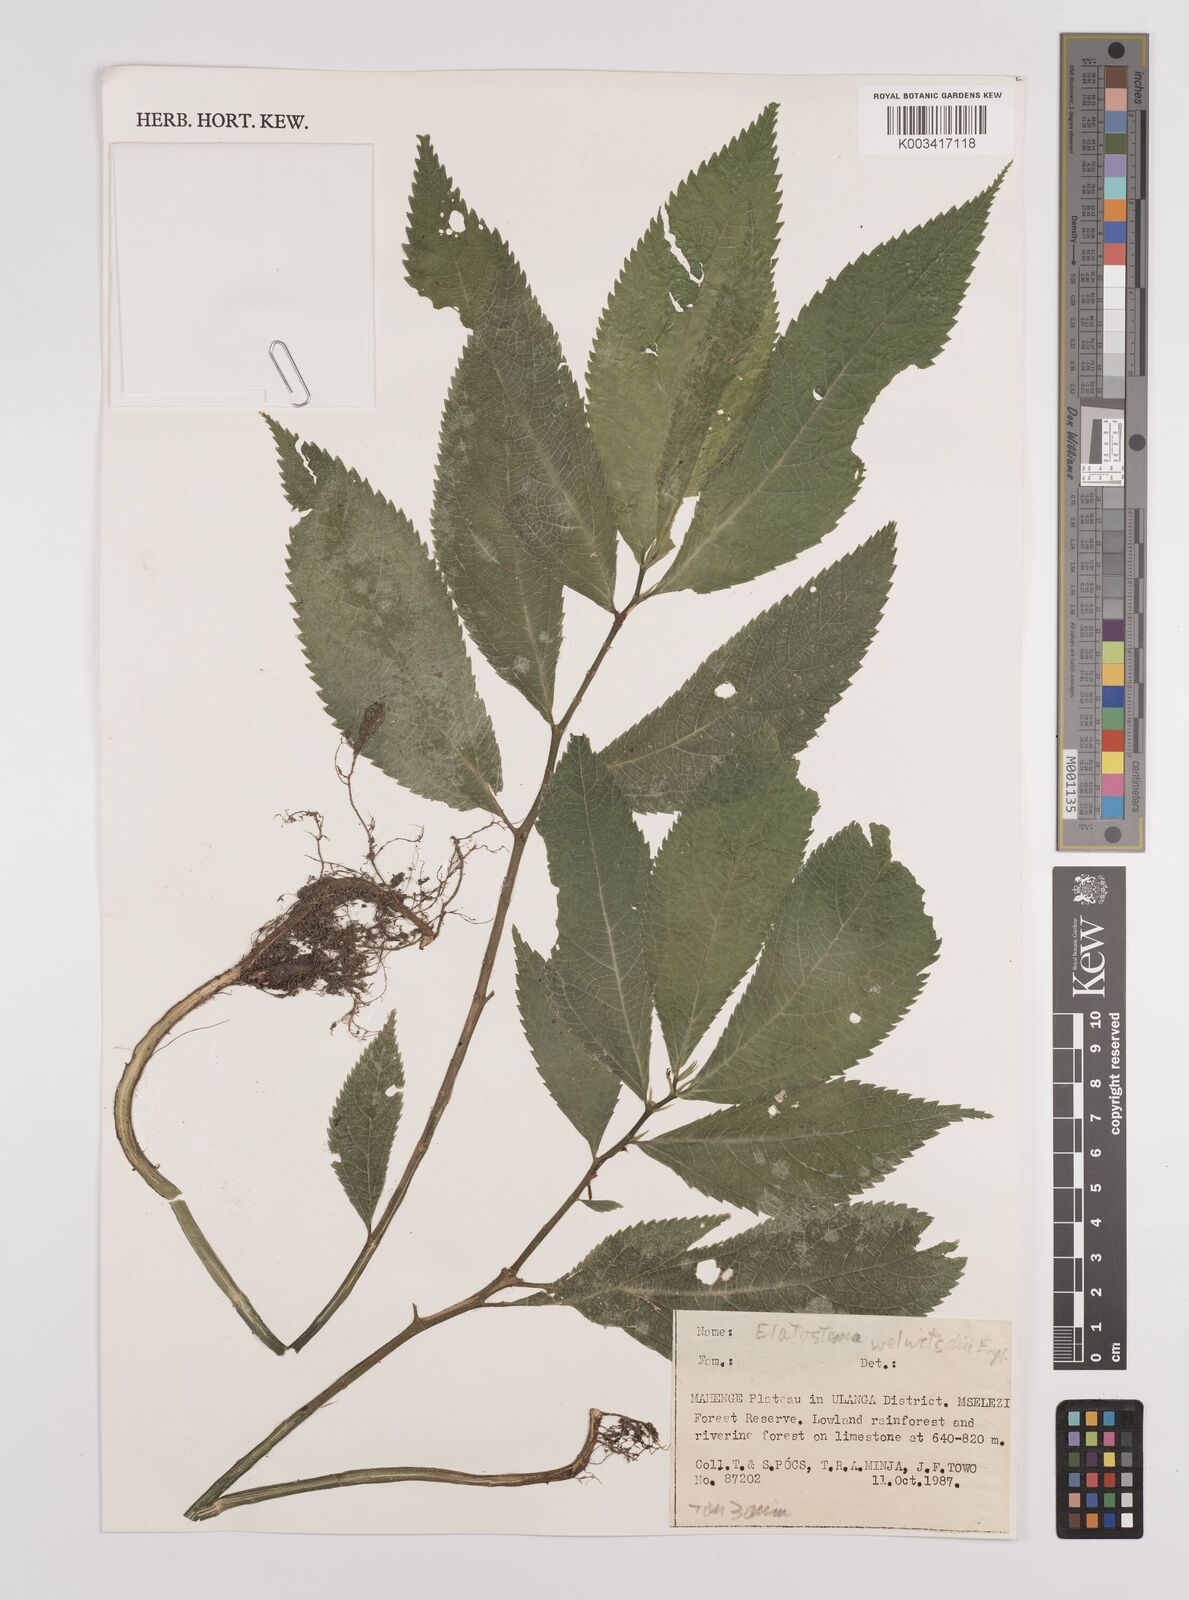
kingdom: Plantae
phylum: Tracheophyta
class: Magnoliopsida
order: Rosales
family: Urticaceae
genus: Elatostema
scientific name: Elatostema welwitschii
